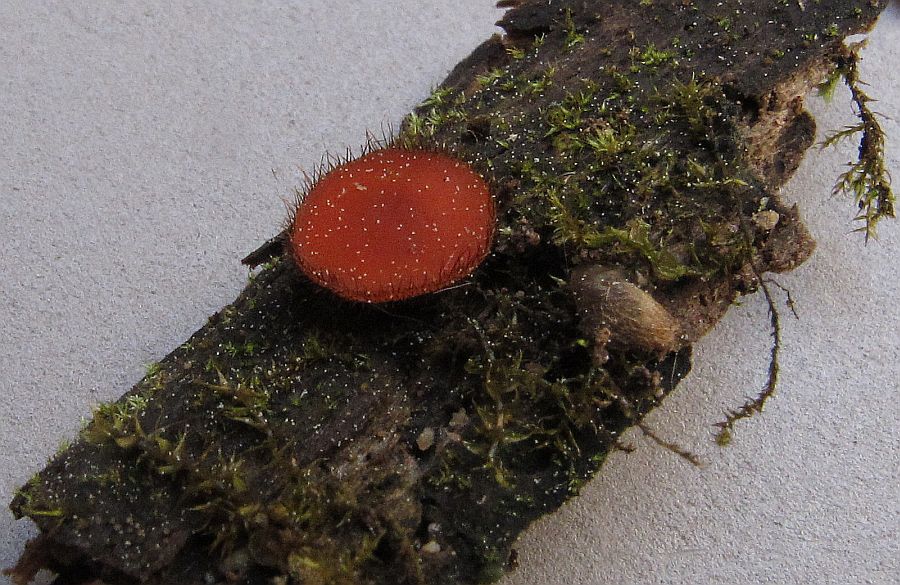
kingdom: Fungi
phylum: Ascomycota
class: Pezizomycetes
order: Pezizales
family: Pyronemataceae
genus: Scutellinia
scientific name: Scutellinia scutellata
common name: frynset skjoldbæger
